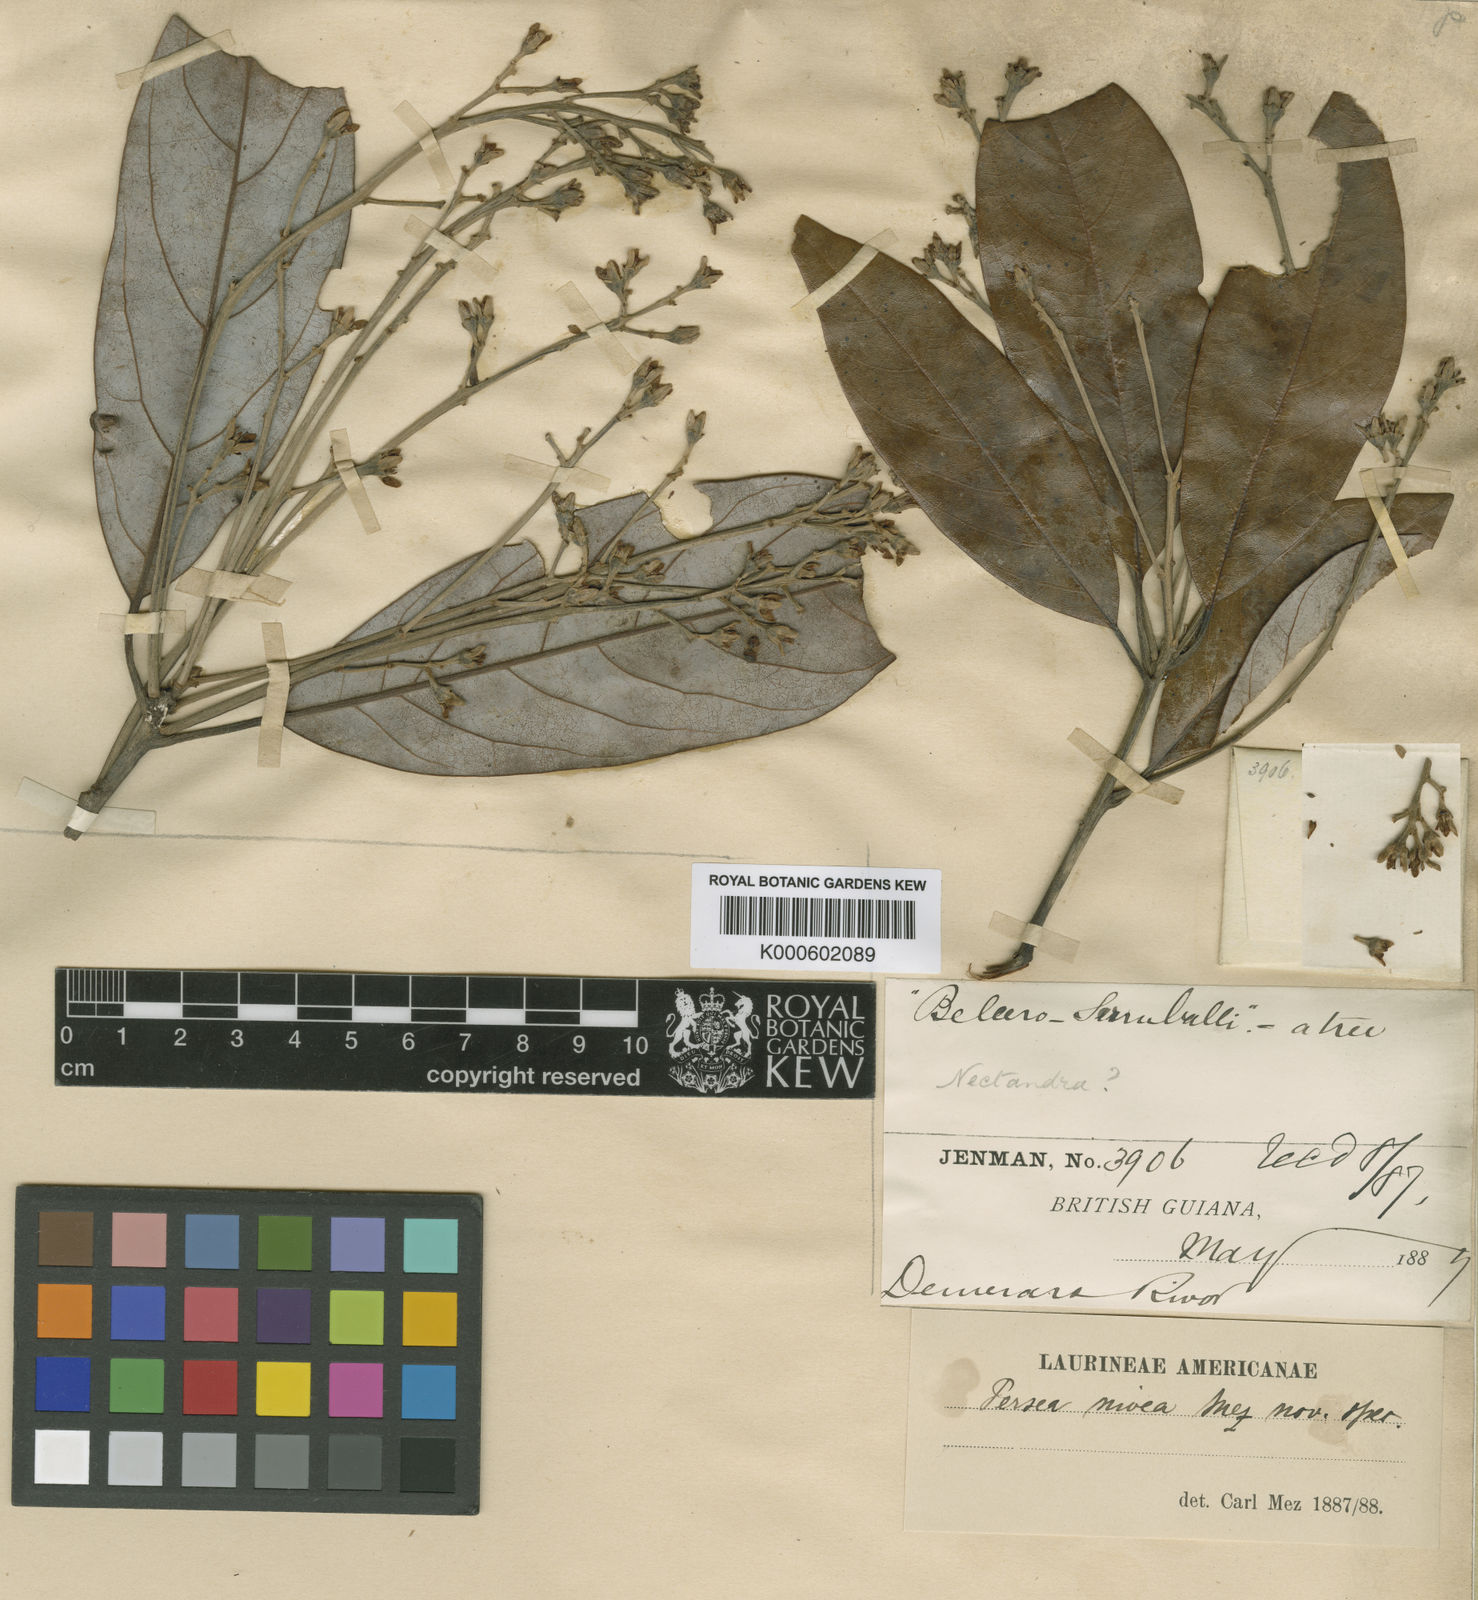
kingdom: Plantae
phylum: Tracheophyta
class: Magnoliopsida
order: Laurales
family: Lauraceae
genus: Persea
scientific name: Persea nivea
